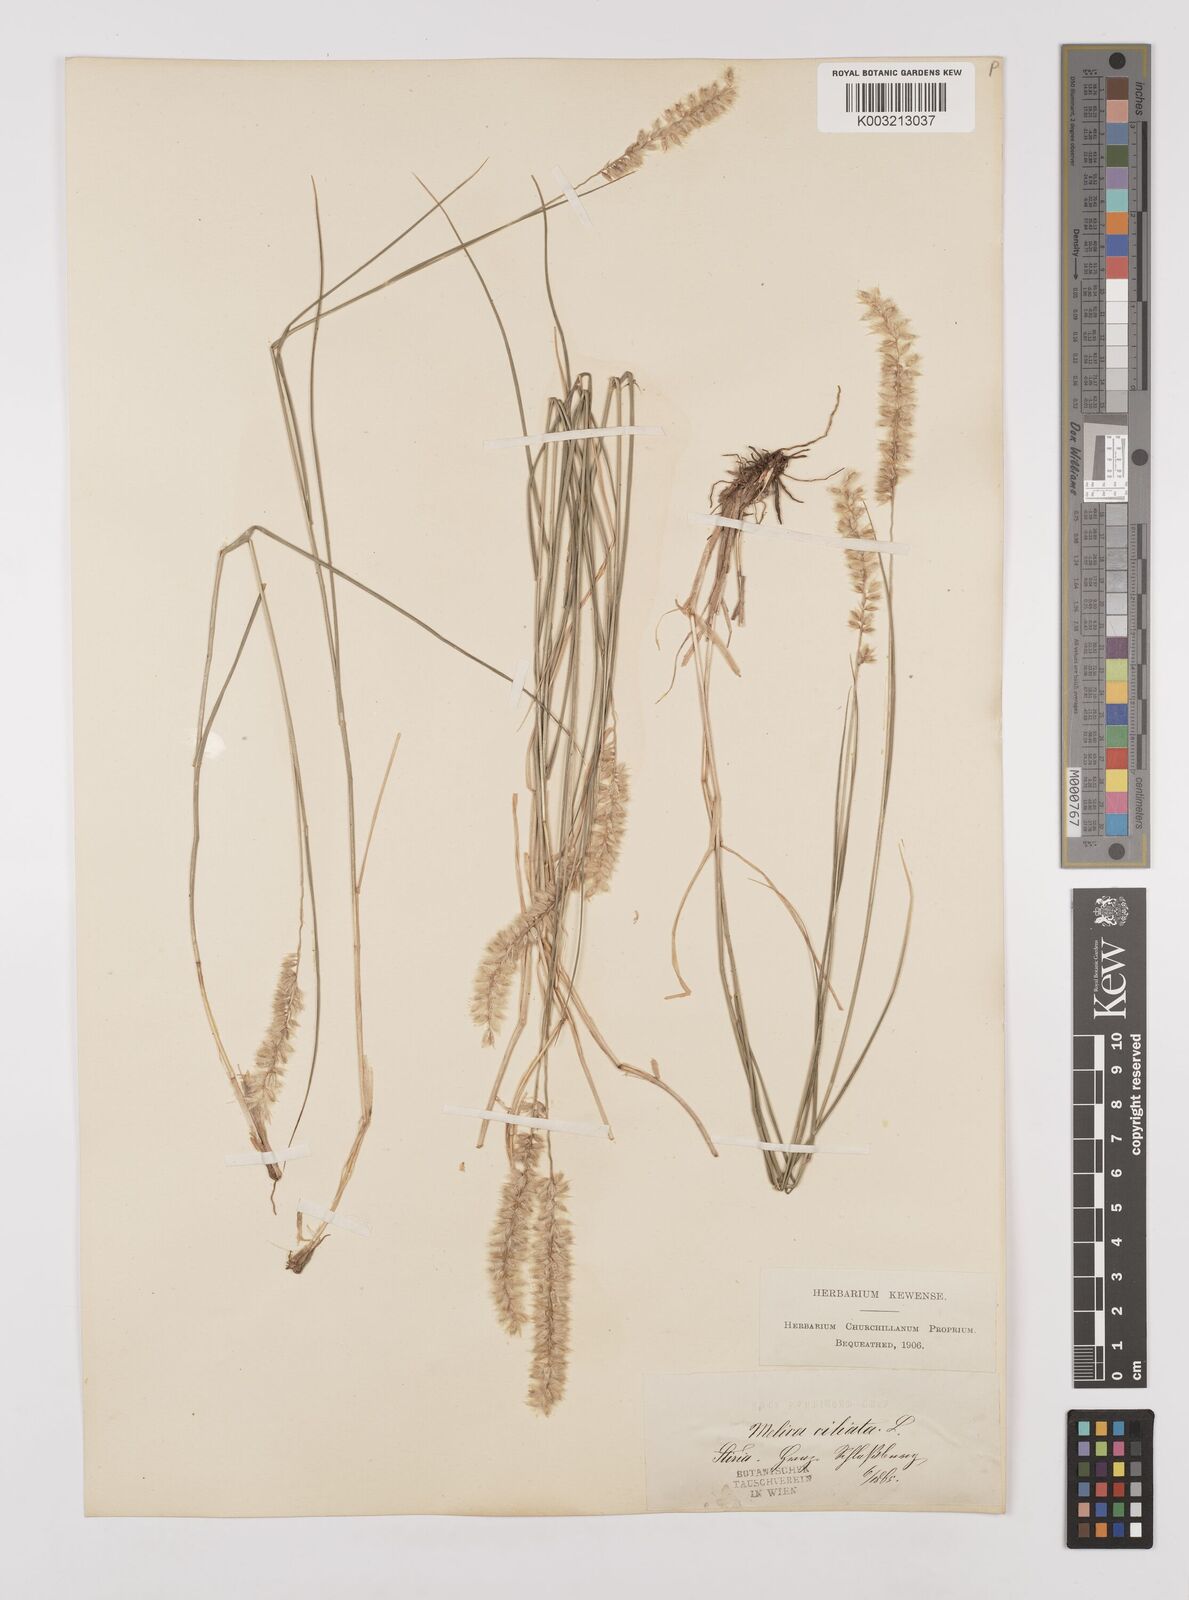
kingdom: Plantae
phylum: Tracheophyta
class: Liliopsida
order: Poales
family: Poaceae
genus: Melica
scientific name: Melica ciliata
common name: Hairy melicgrass
